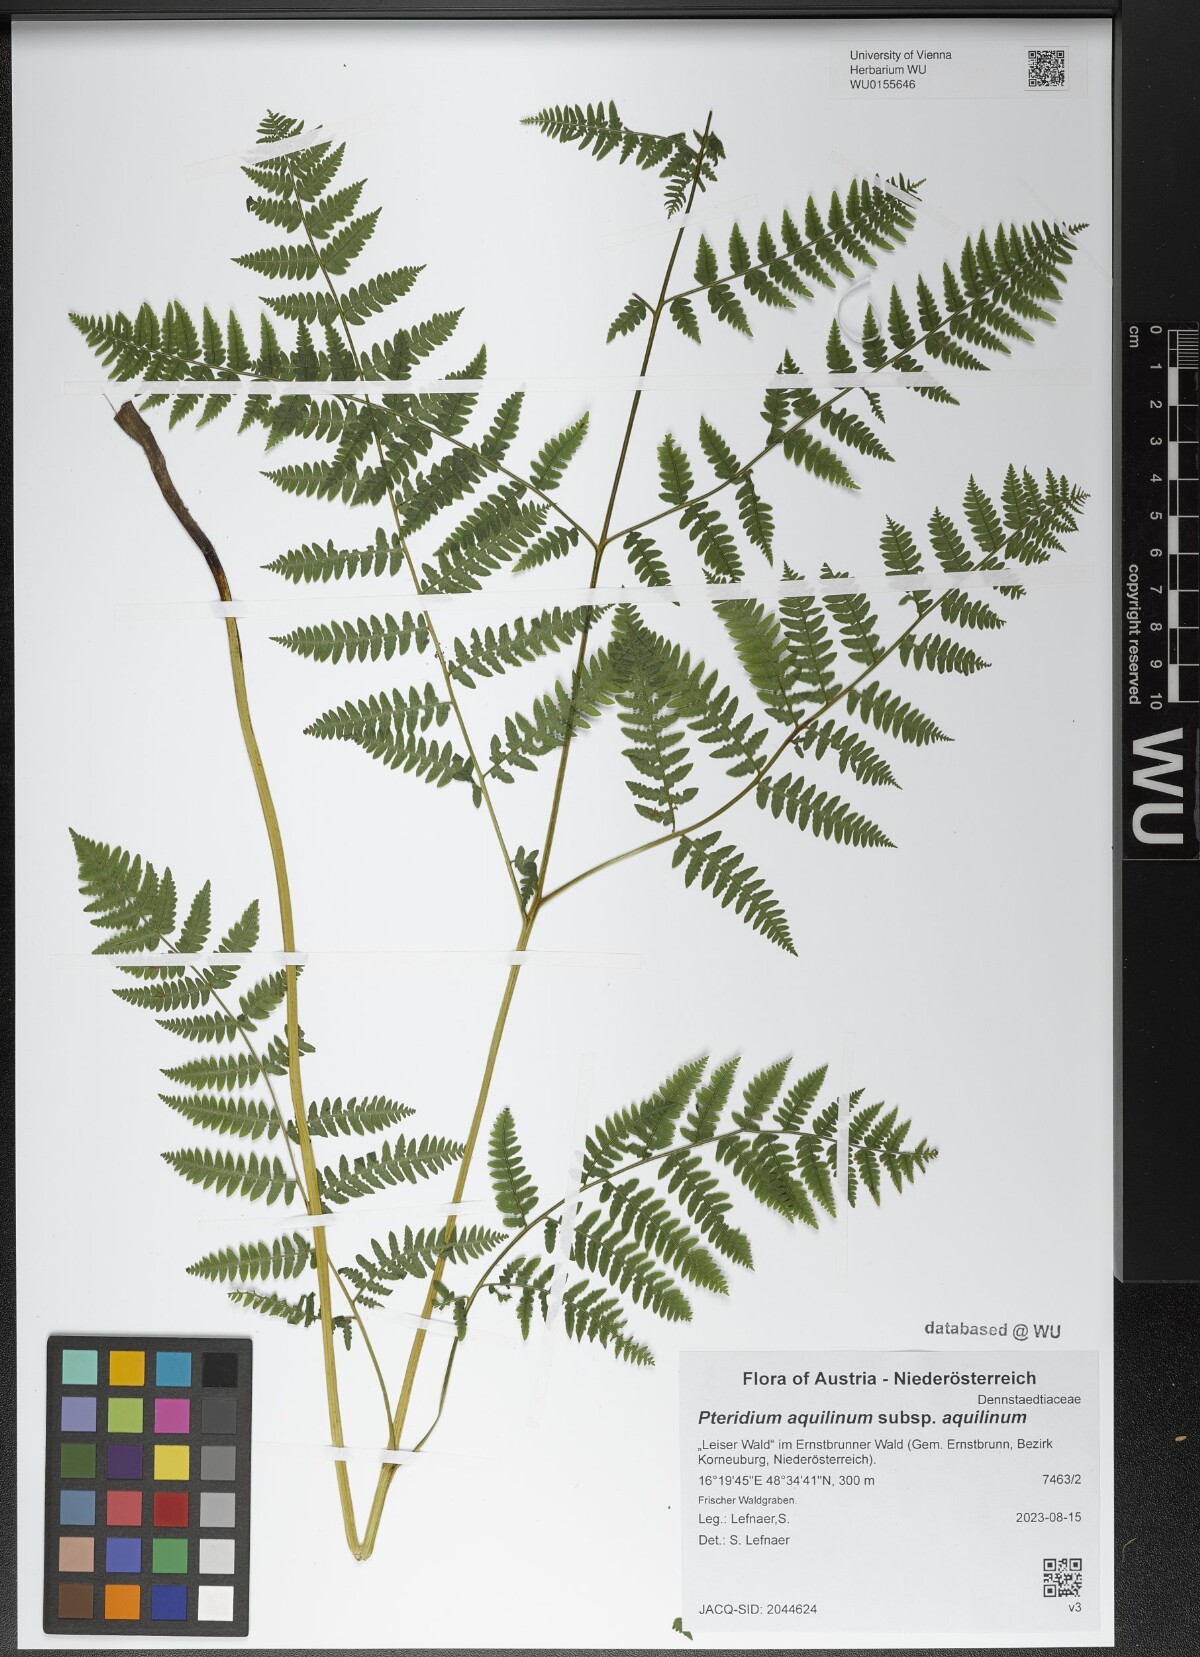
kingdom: Plantae
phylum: Tracheophyta
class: Polypodiopsida
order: Polypodiales
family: Dennstaedtiaceae
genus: Pteridium
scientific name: Pteridium aquilinum
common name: Bracken
